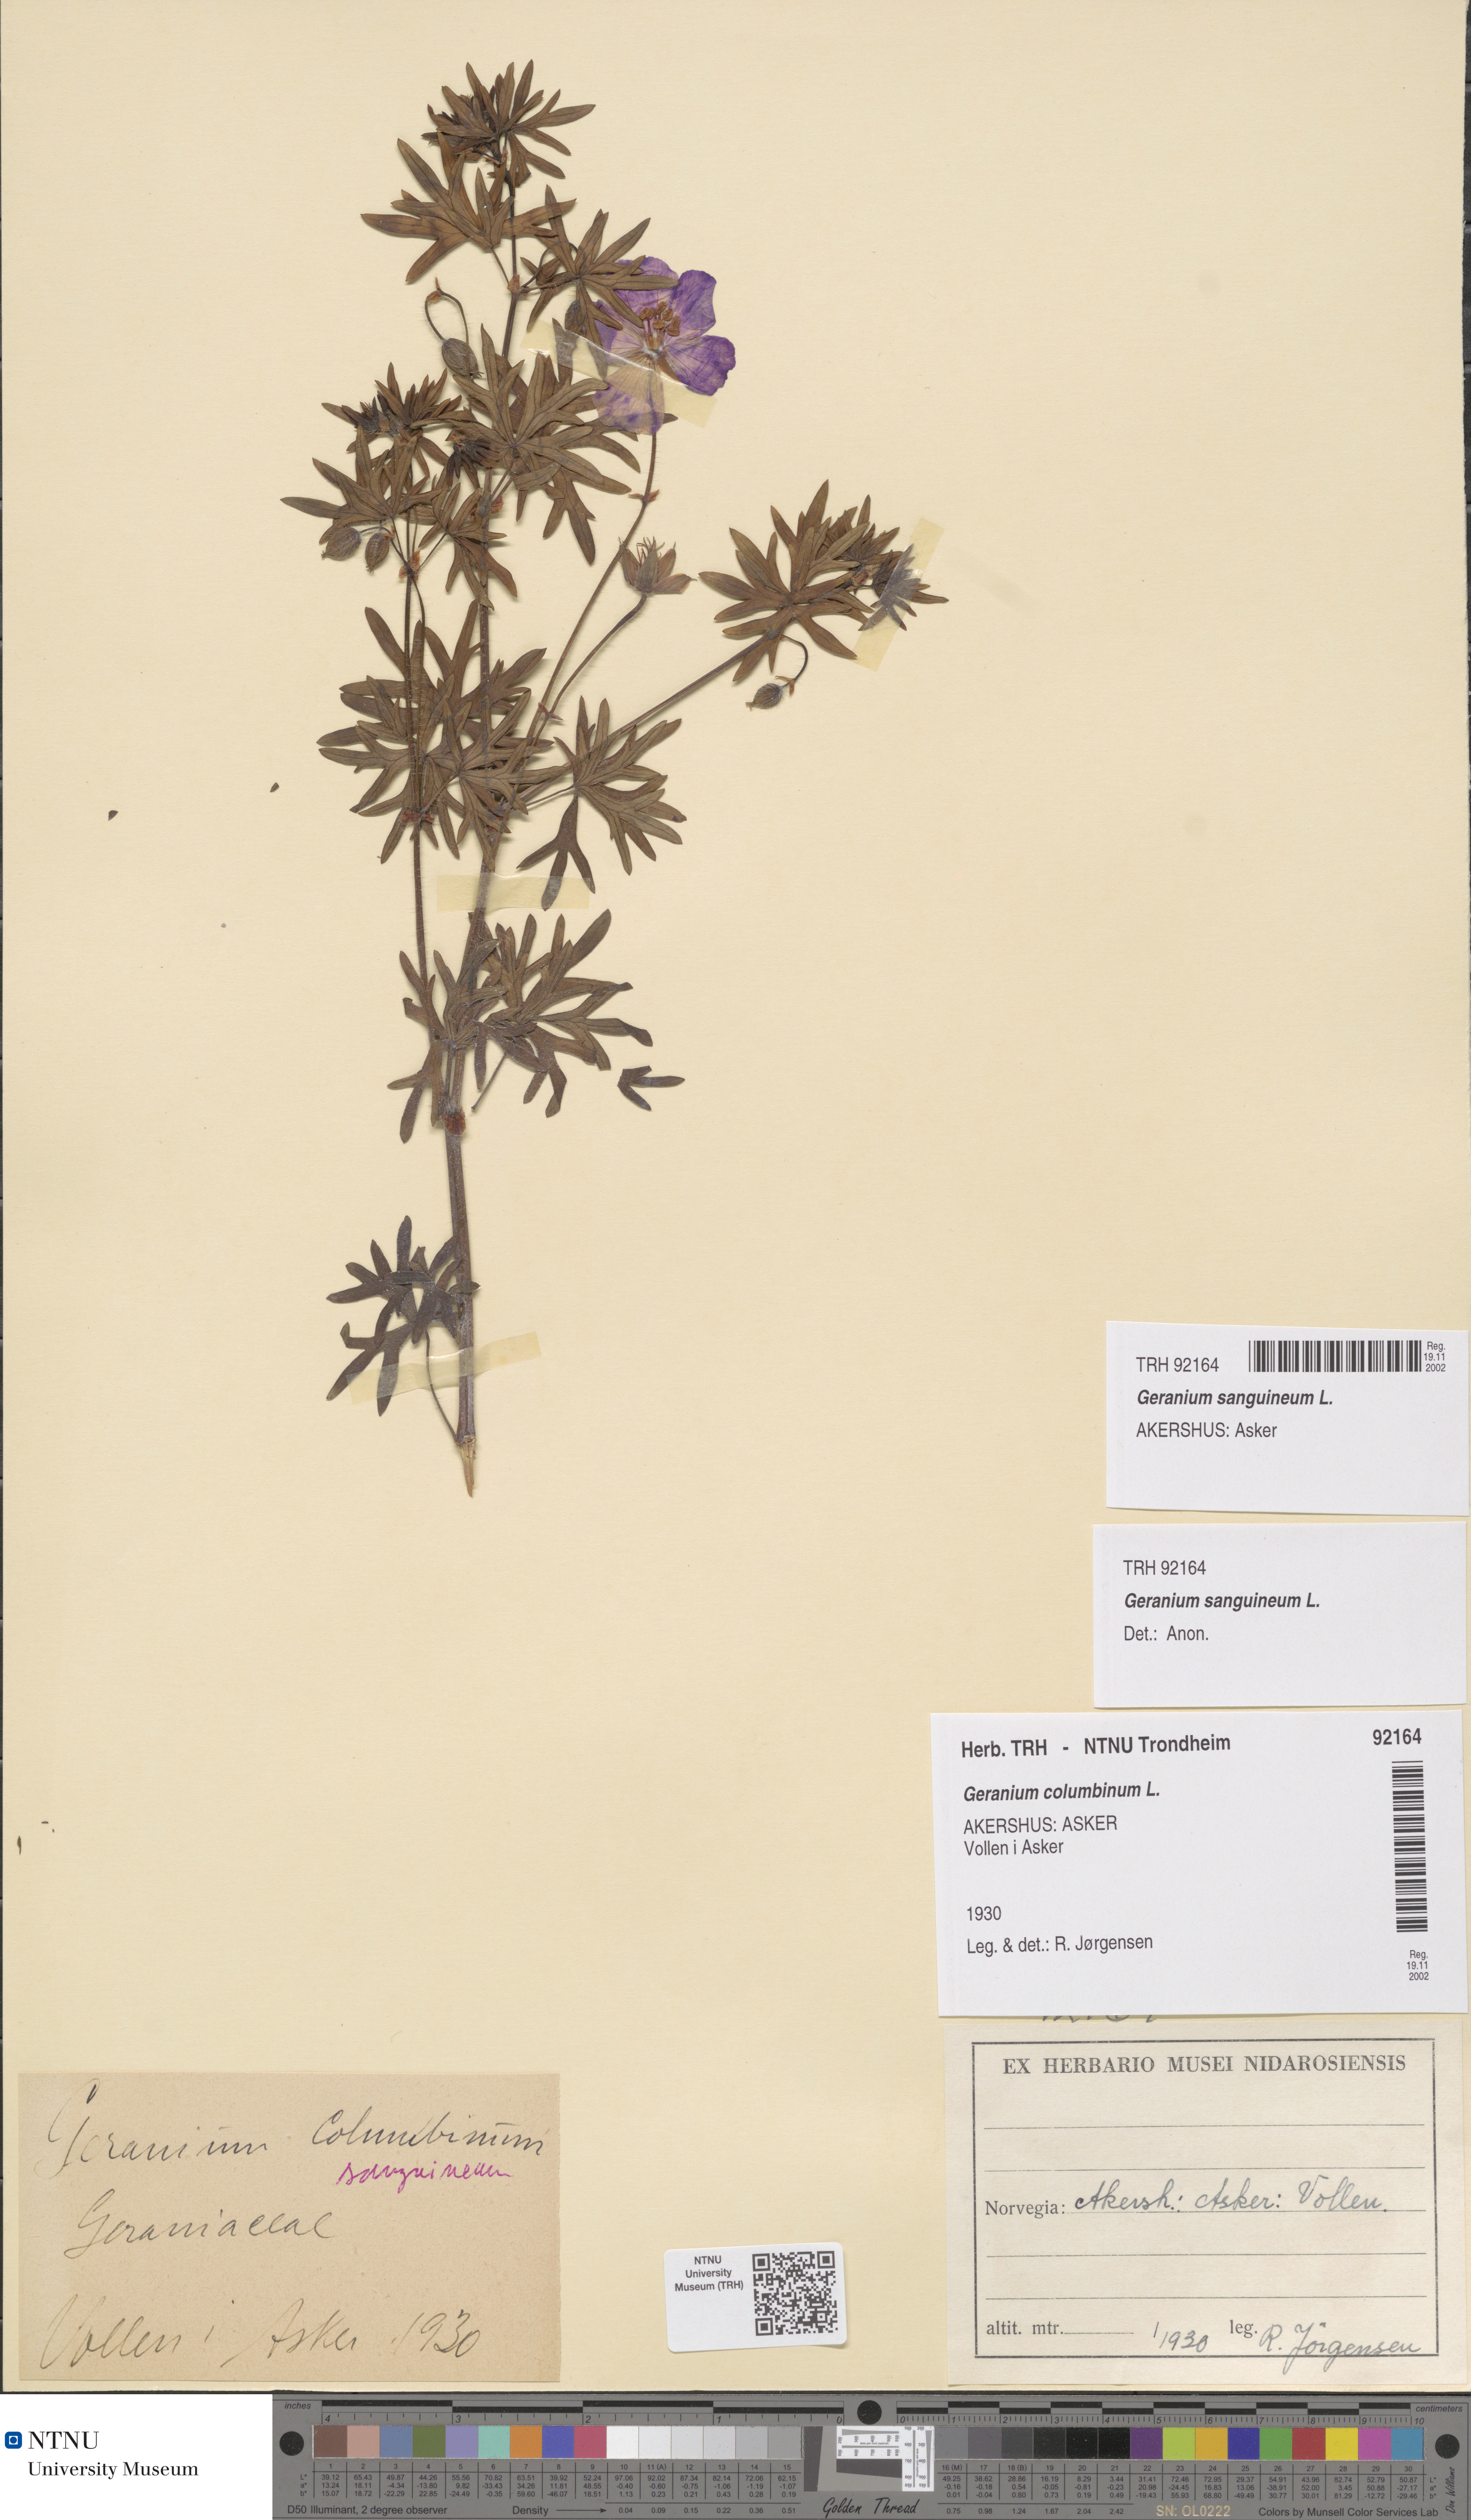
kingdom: Plantae
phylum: Tracheophyta
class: Magnoliopsida
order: Geraniales
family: Geraniaceae
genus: Geranium
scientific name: Geranium sanguineum
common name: Bloody crane's-bill
